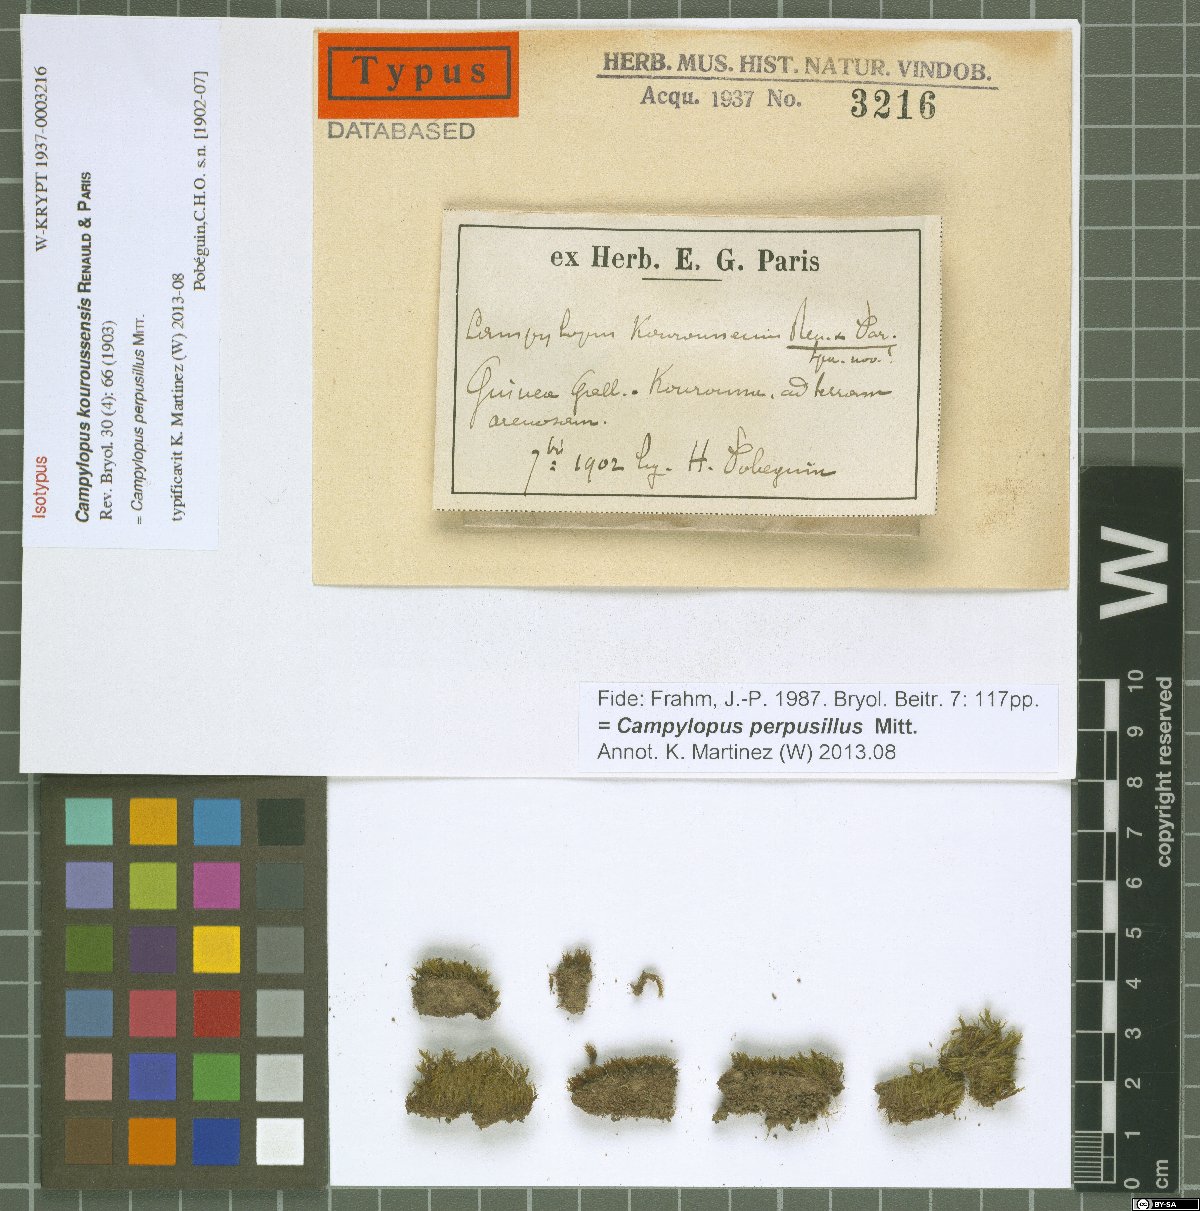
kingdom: Plantae
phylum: Bryophyta
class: Bryopsida
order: Dicranales
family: Leucobryaceae
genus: Campylopus
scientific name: Campylopus perpusillus
